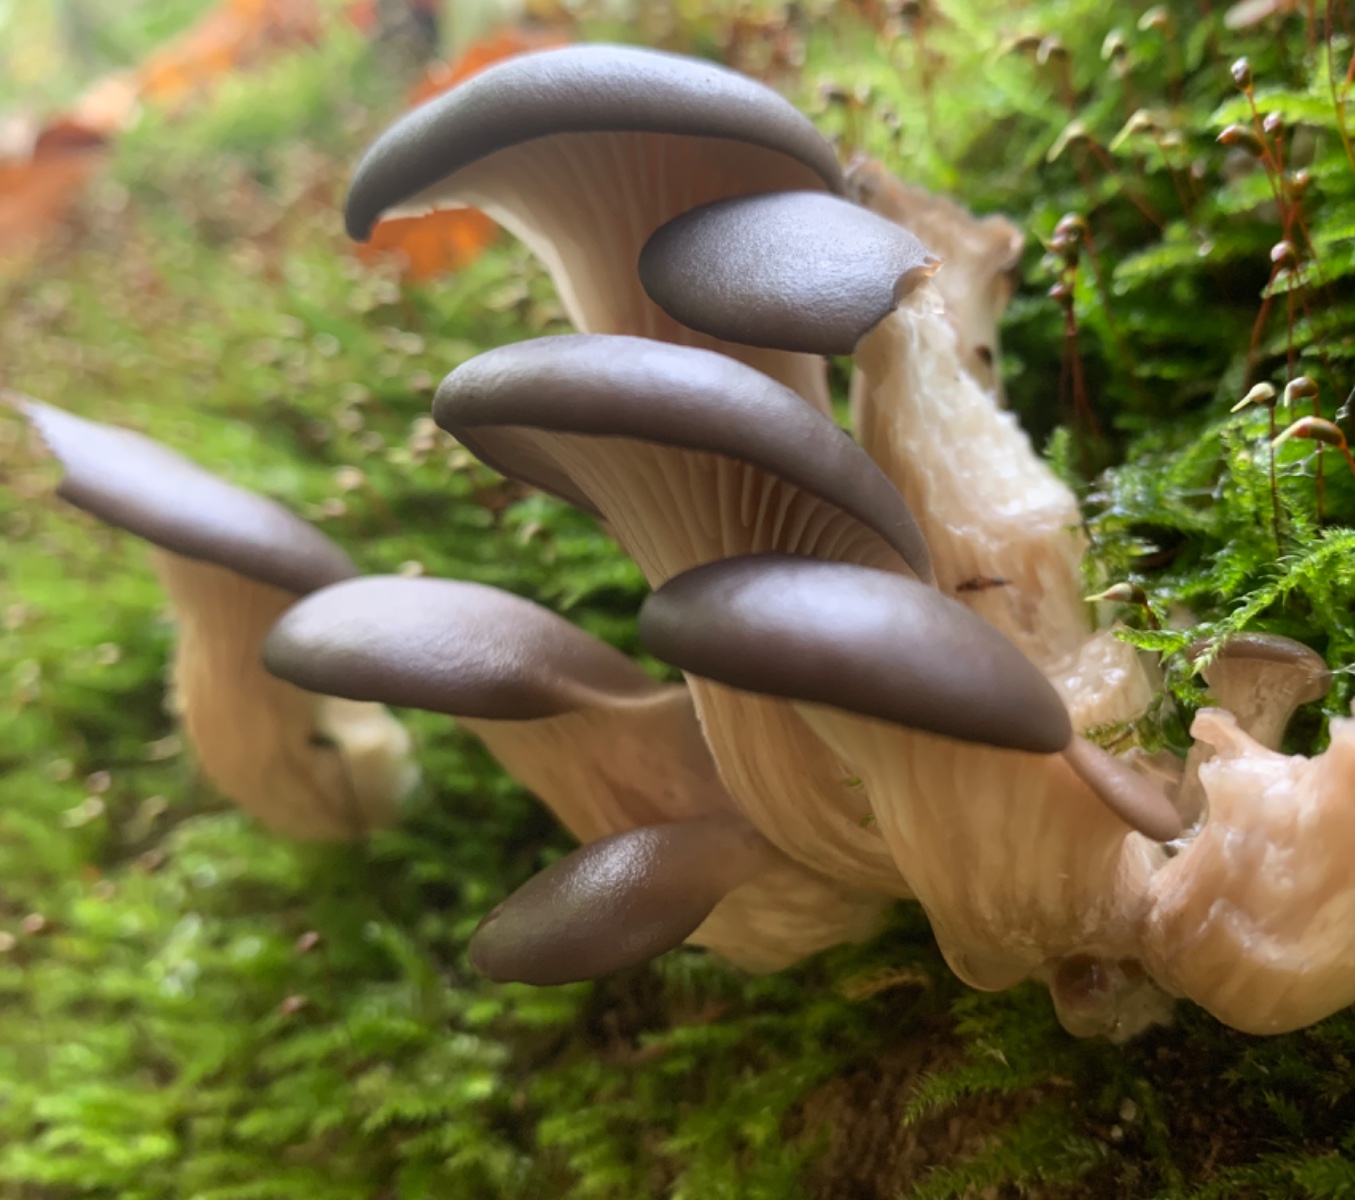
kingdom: Fungi
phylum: Basidiomycota
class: Agaricomycetes
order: Agaricales
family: Pleurotaceae
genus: Pleurotus
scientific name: Pleurotus ostreatus
